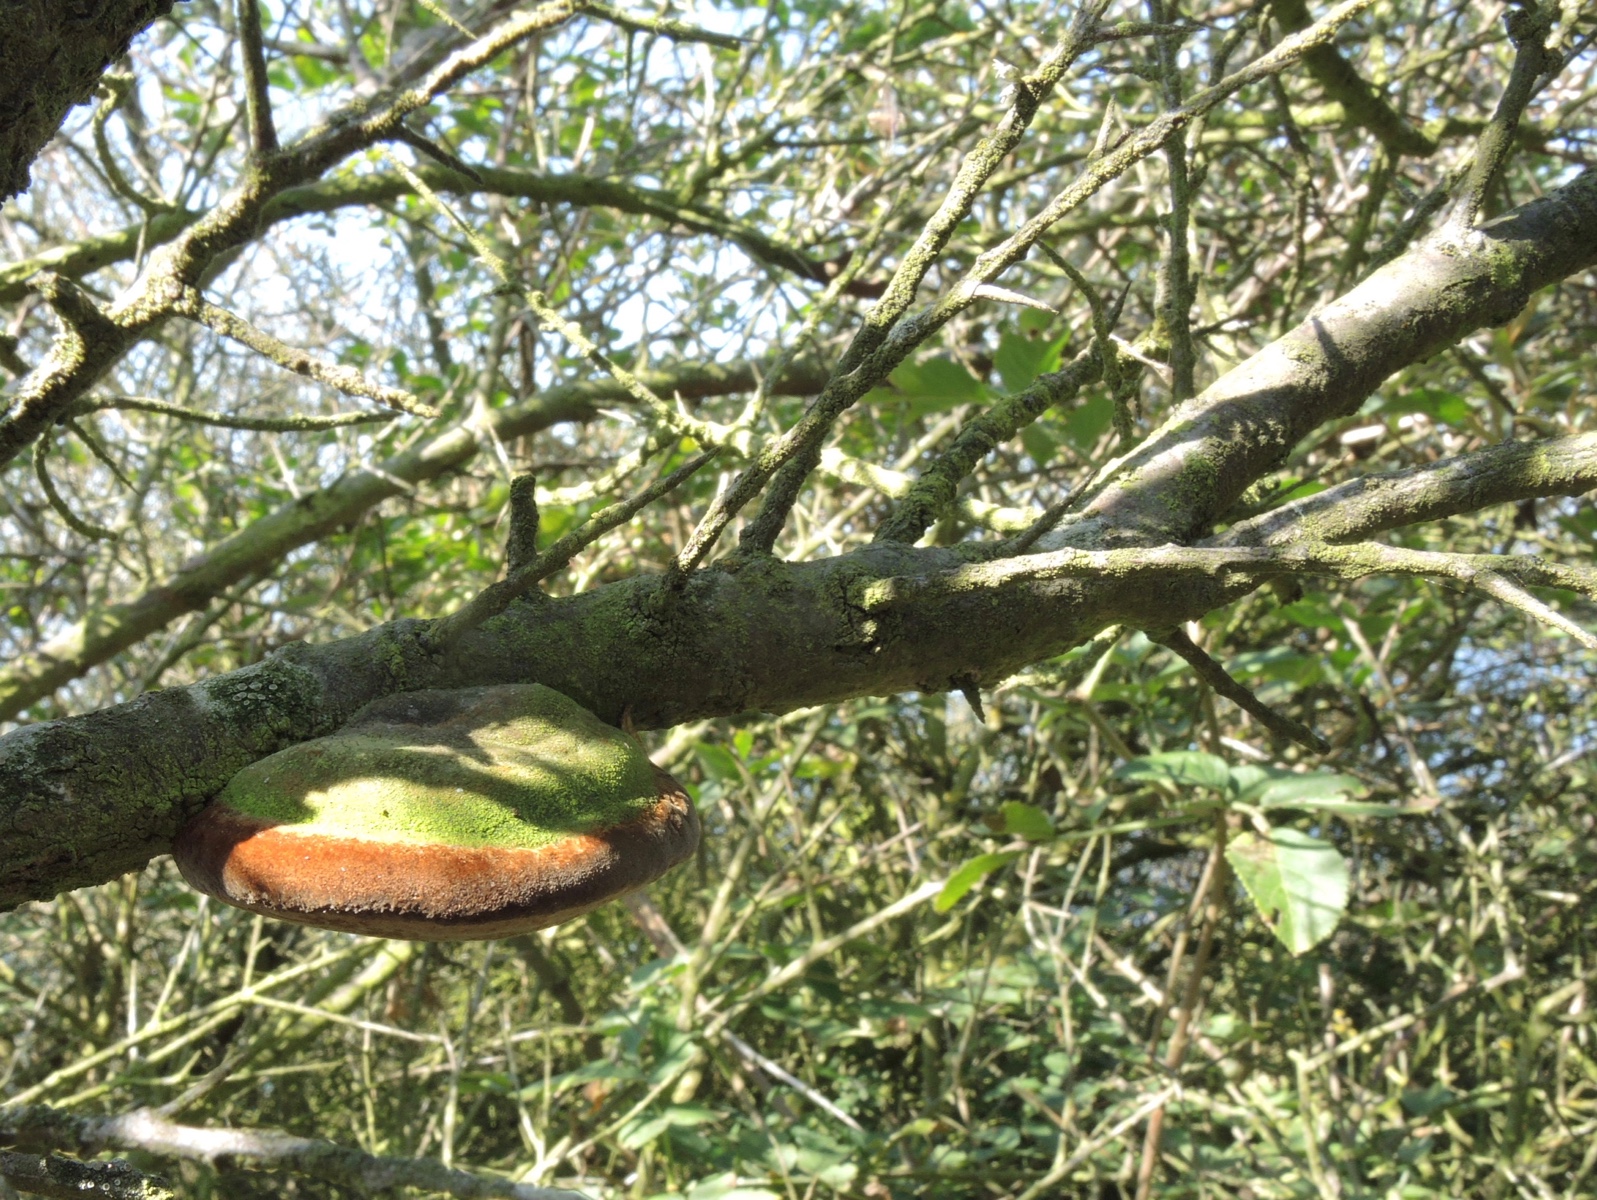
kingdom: Fungi
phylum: Basidiomycota
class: Agaricomycetes
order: Hymenochaetales
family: Hymenochaetaceae
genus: Fomitiporia
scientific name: Fomitiporia hippophaeicola
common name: havtorn-ildporesvamp
